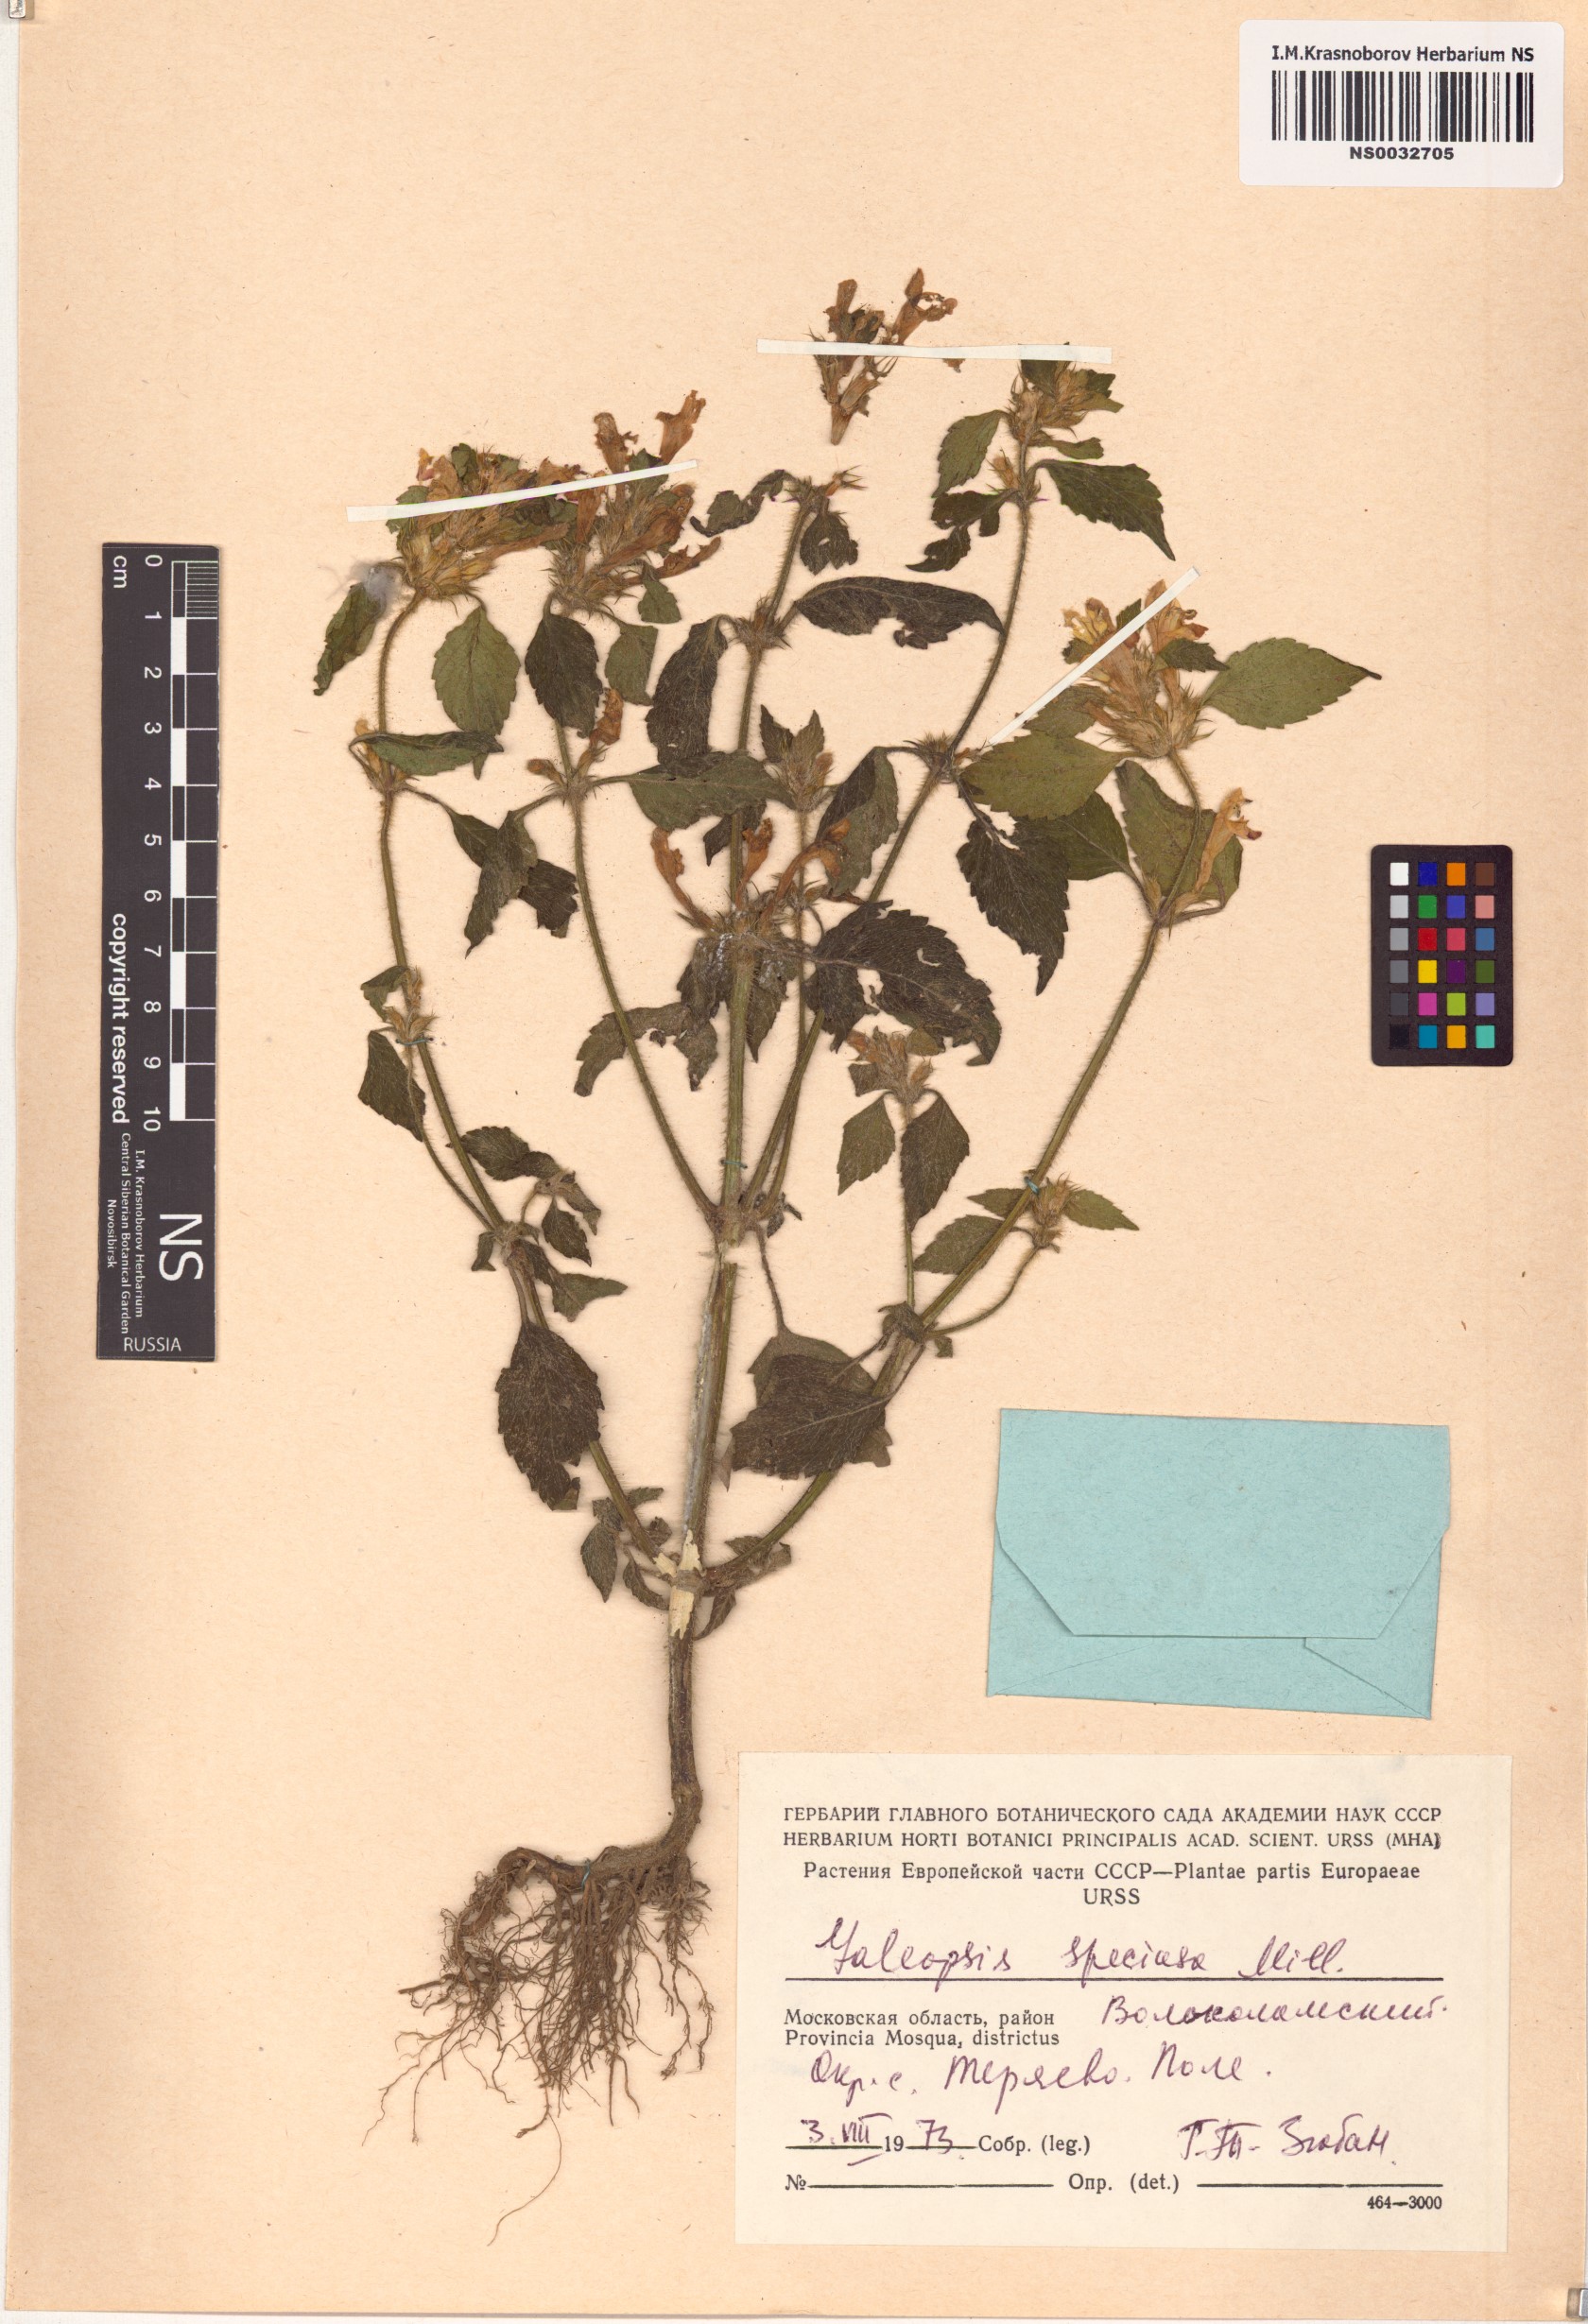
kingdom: Plantae
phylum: Tracheophyta
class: Magnoliopsida
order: Lamiales
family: Lamiaceae
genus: Galeopsis
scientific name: Galeopsis speciosa
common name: Large-flowered hemp-nettle
